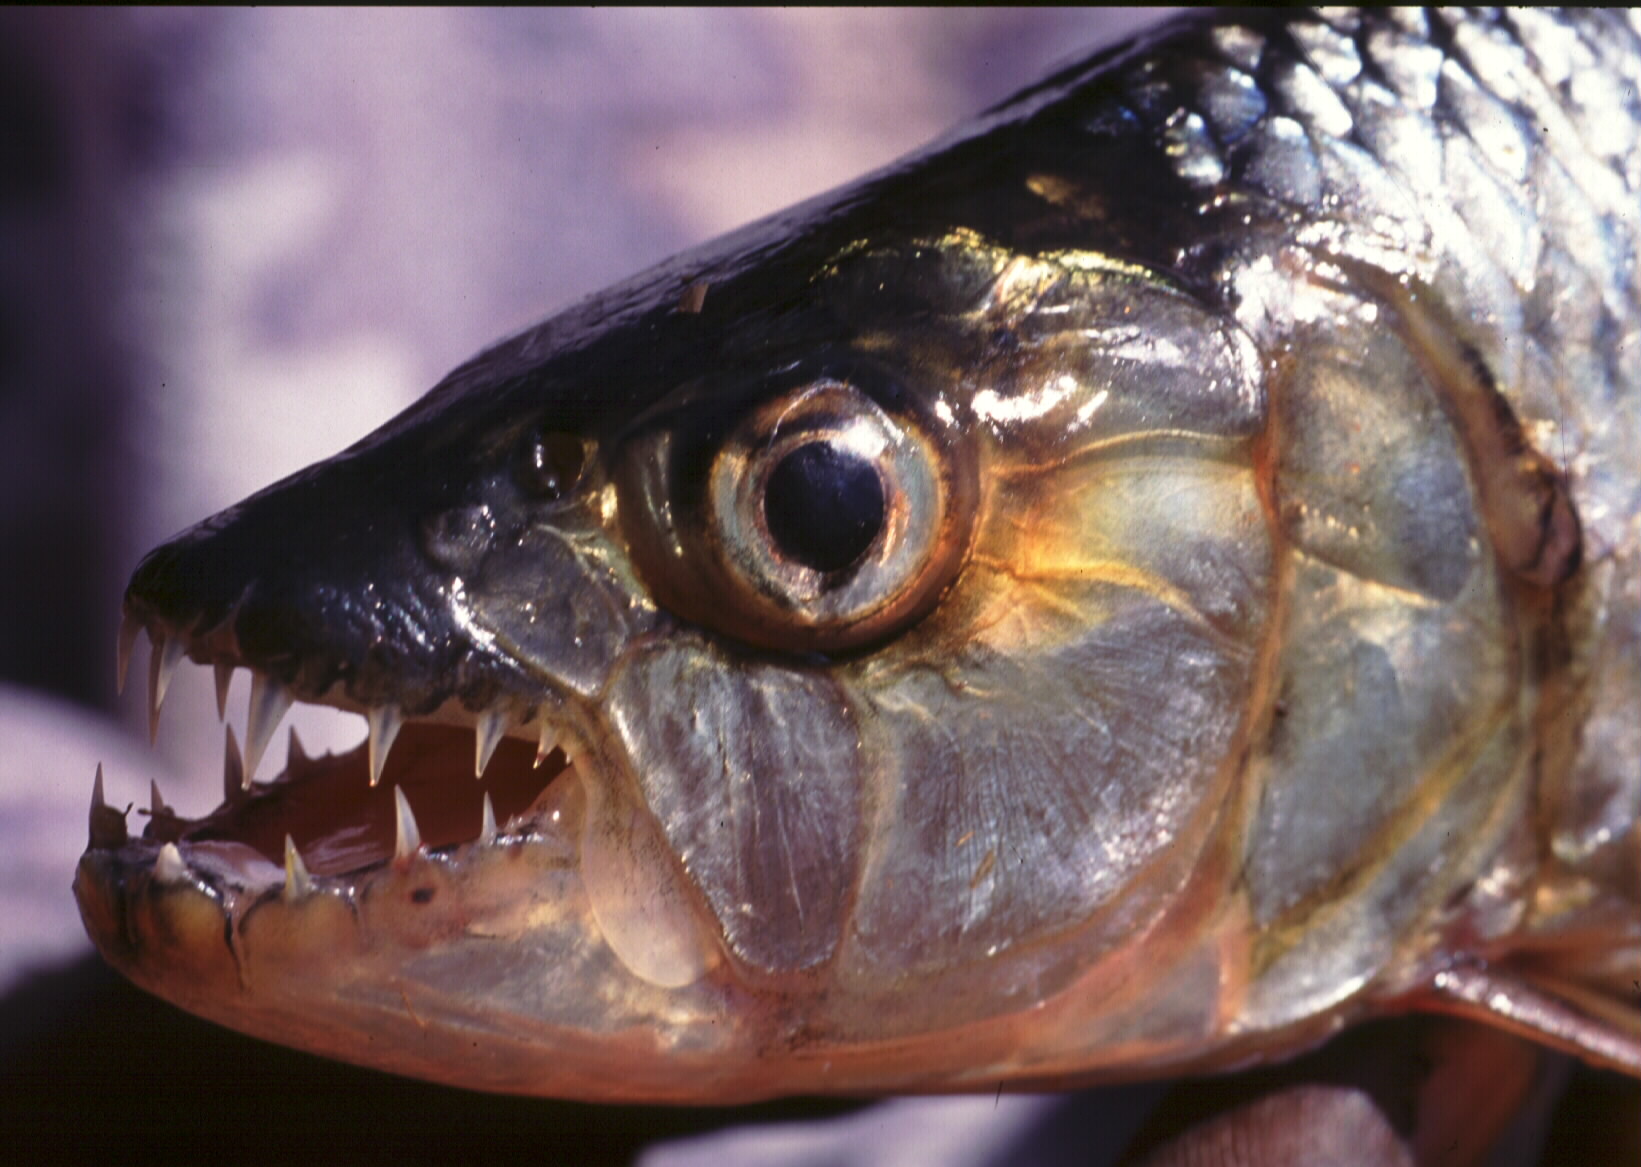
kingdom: Animalia
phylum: Chordata
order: Characiformes
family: Alestidae
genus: Hydrocynus
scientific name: Hydrocynus vittatus
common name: Tigerfish
